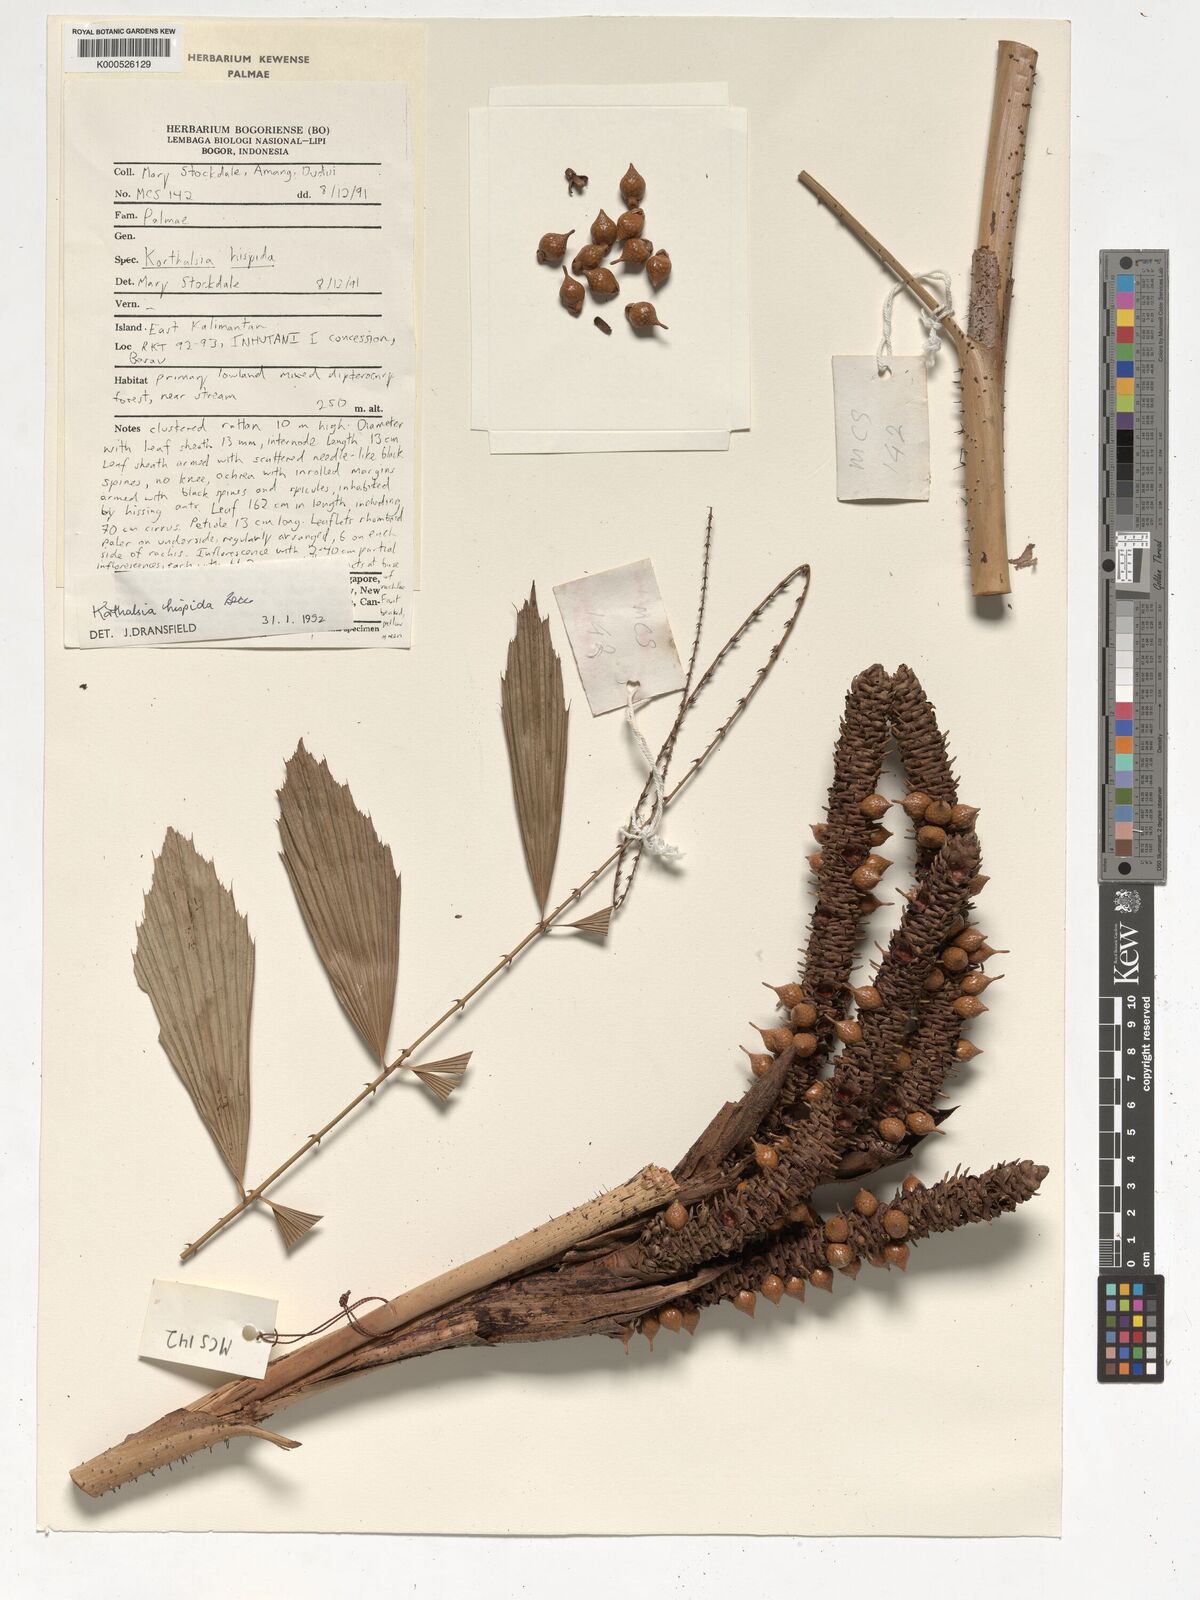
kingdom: Plantae
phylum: Tracheophyta
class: Liliopsida
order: Arecales
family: Arecaceae
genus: Korthalsia
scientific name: Korthalsia hispida
